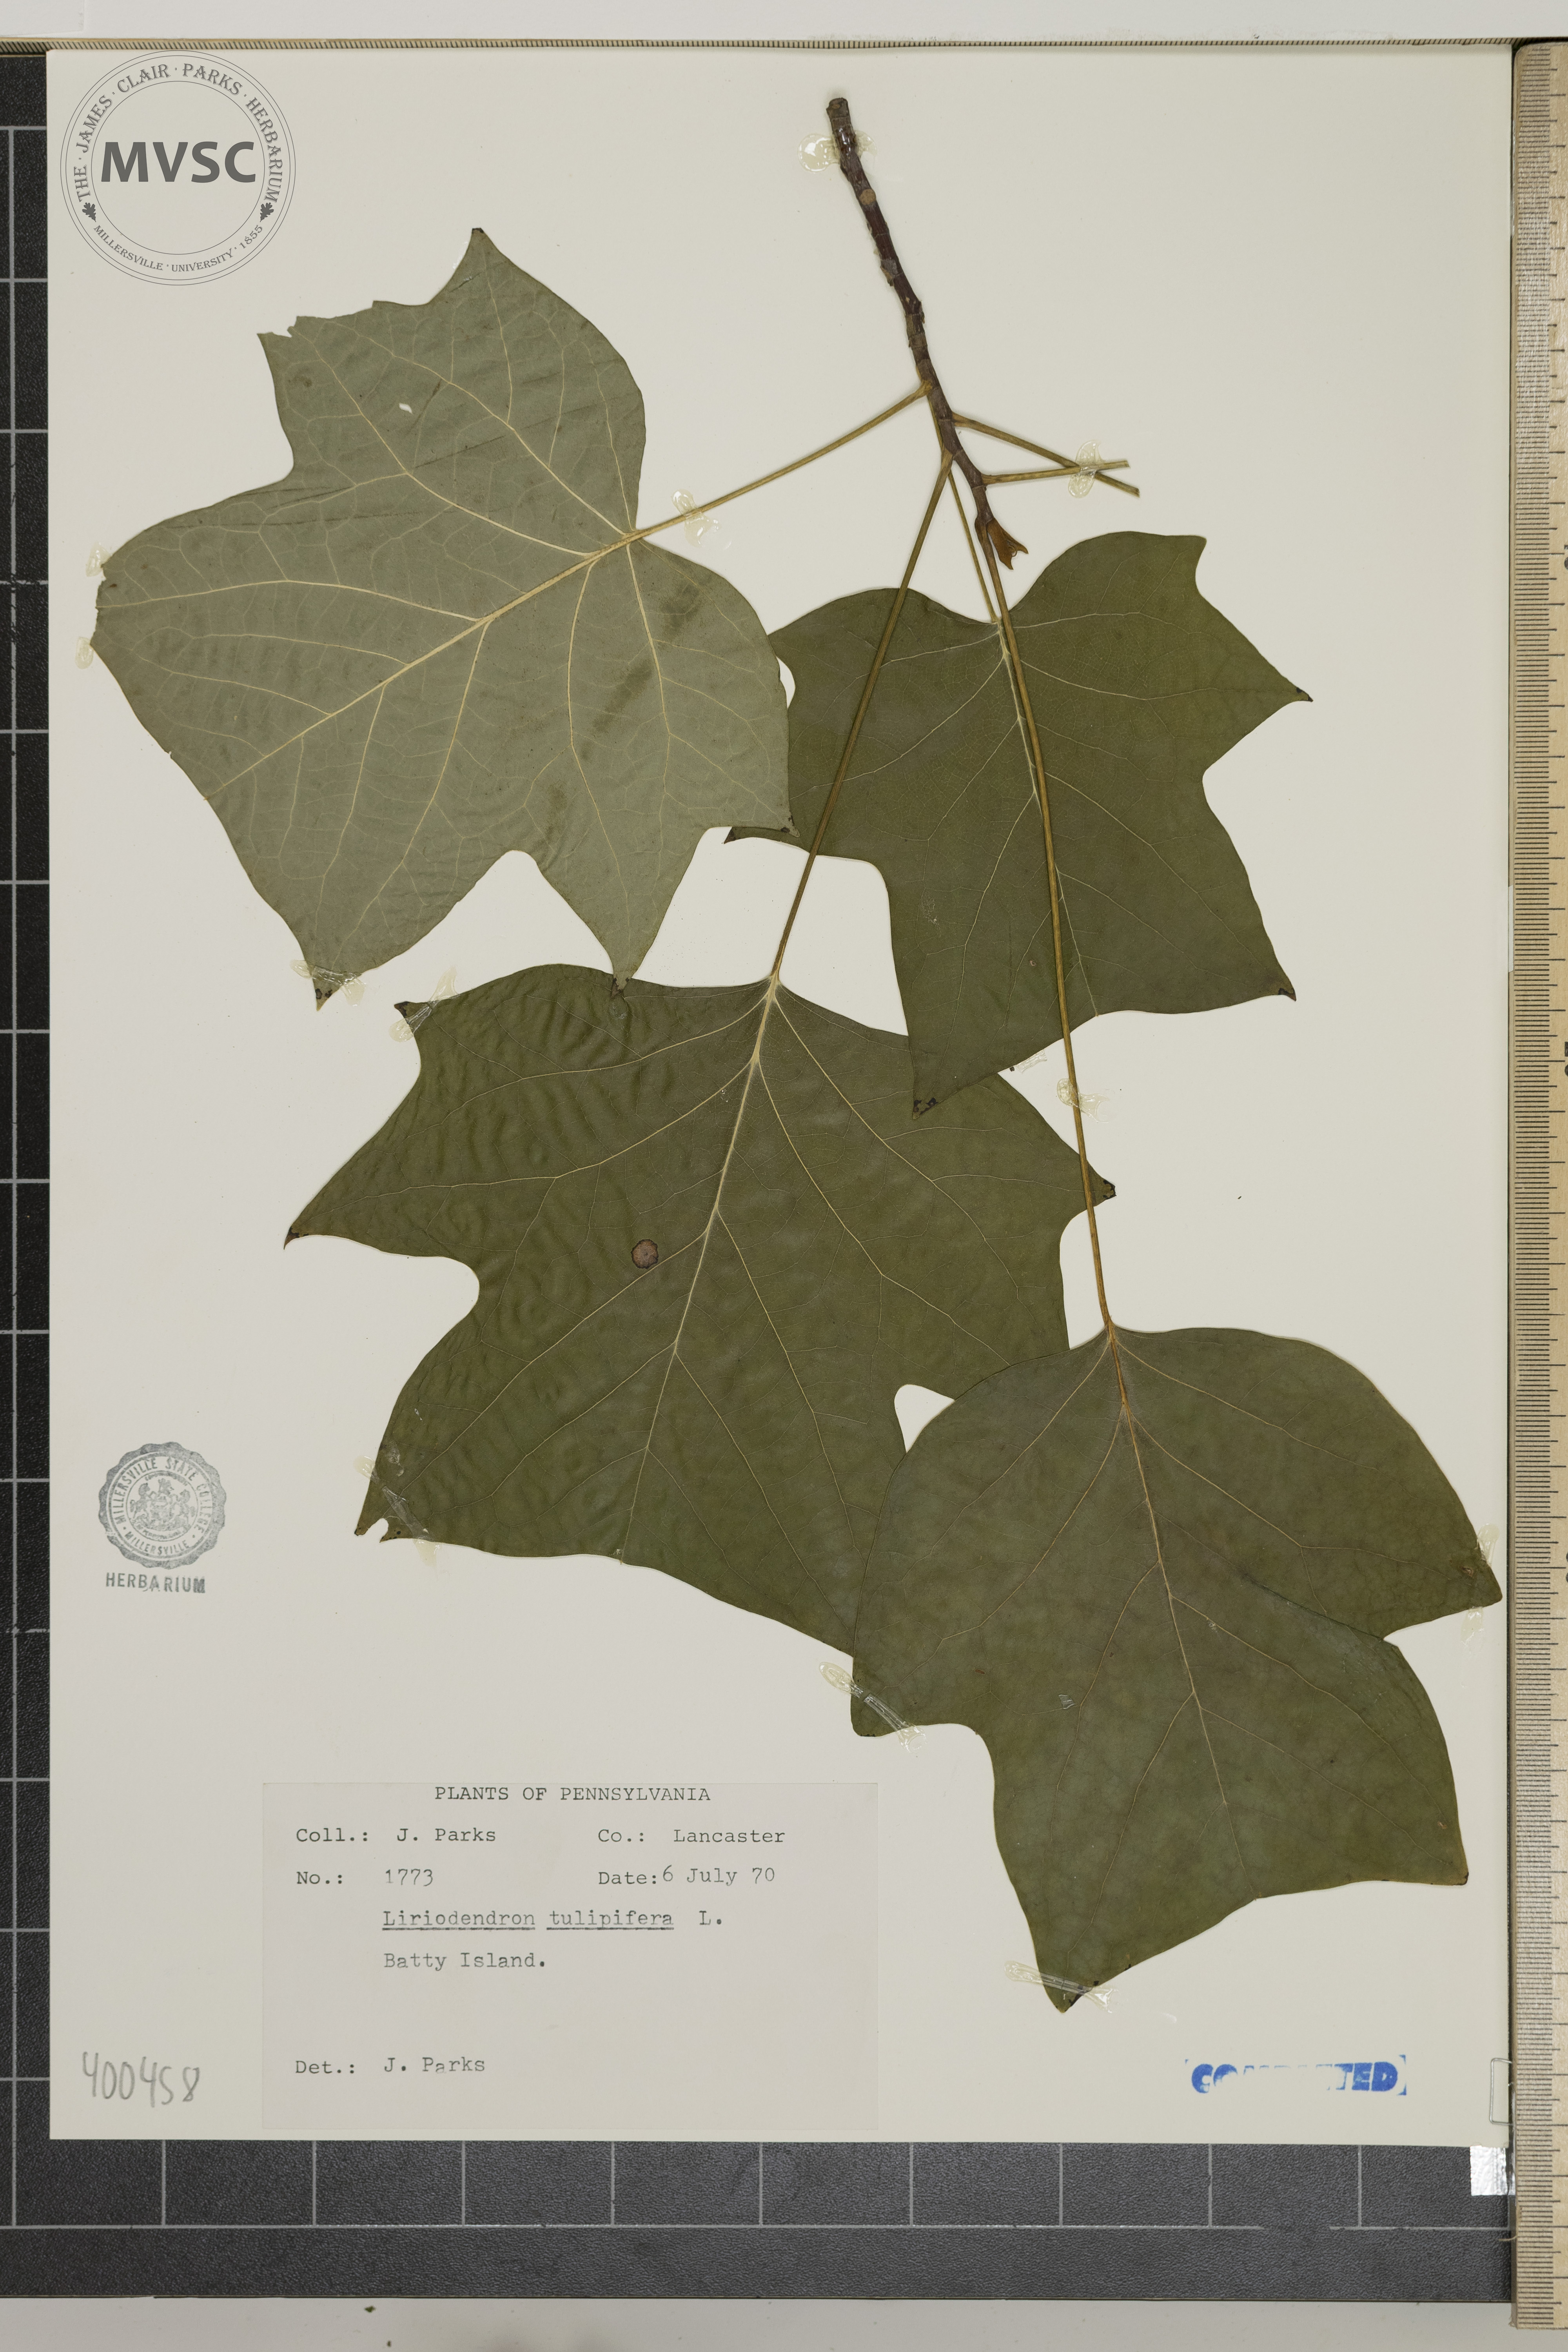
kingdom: Plantae
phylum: Tracheophyta
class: Magnoliopsida
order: Magnoliales
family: Magnoliaceae
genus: Liriodendron
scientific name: Liriodendron tulipifera
